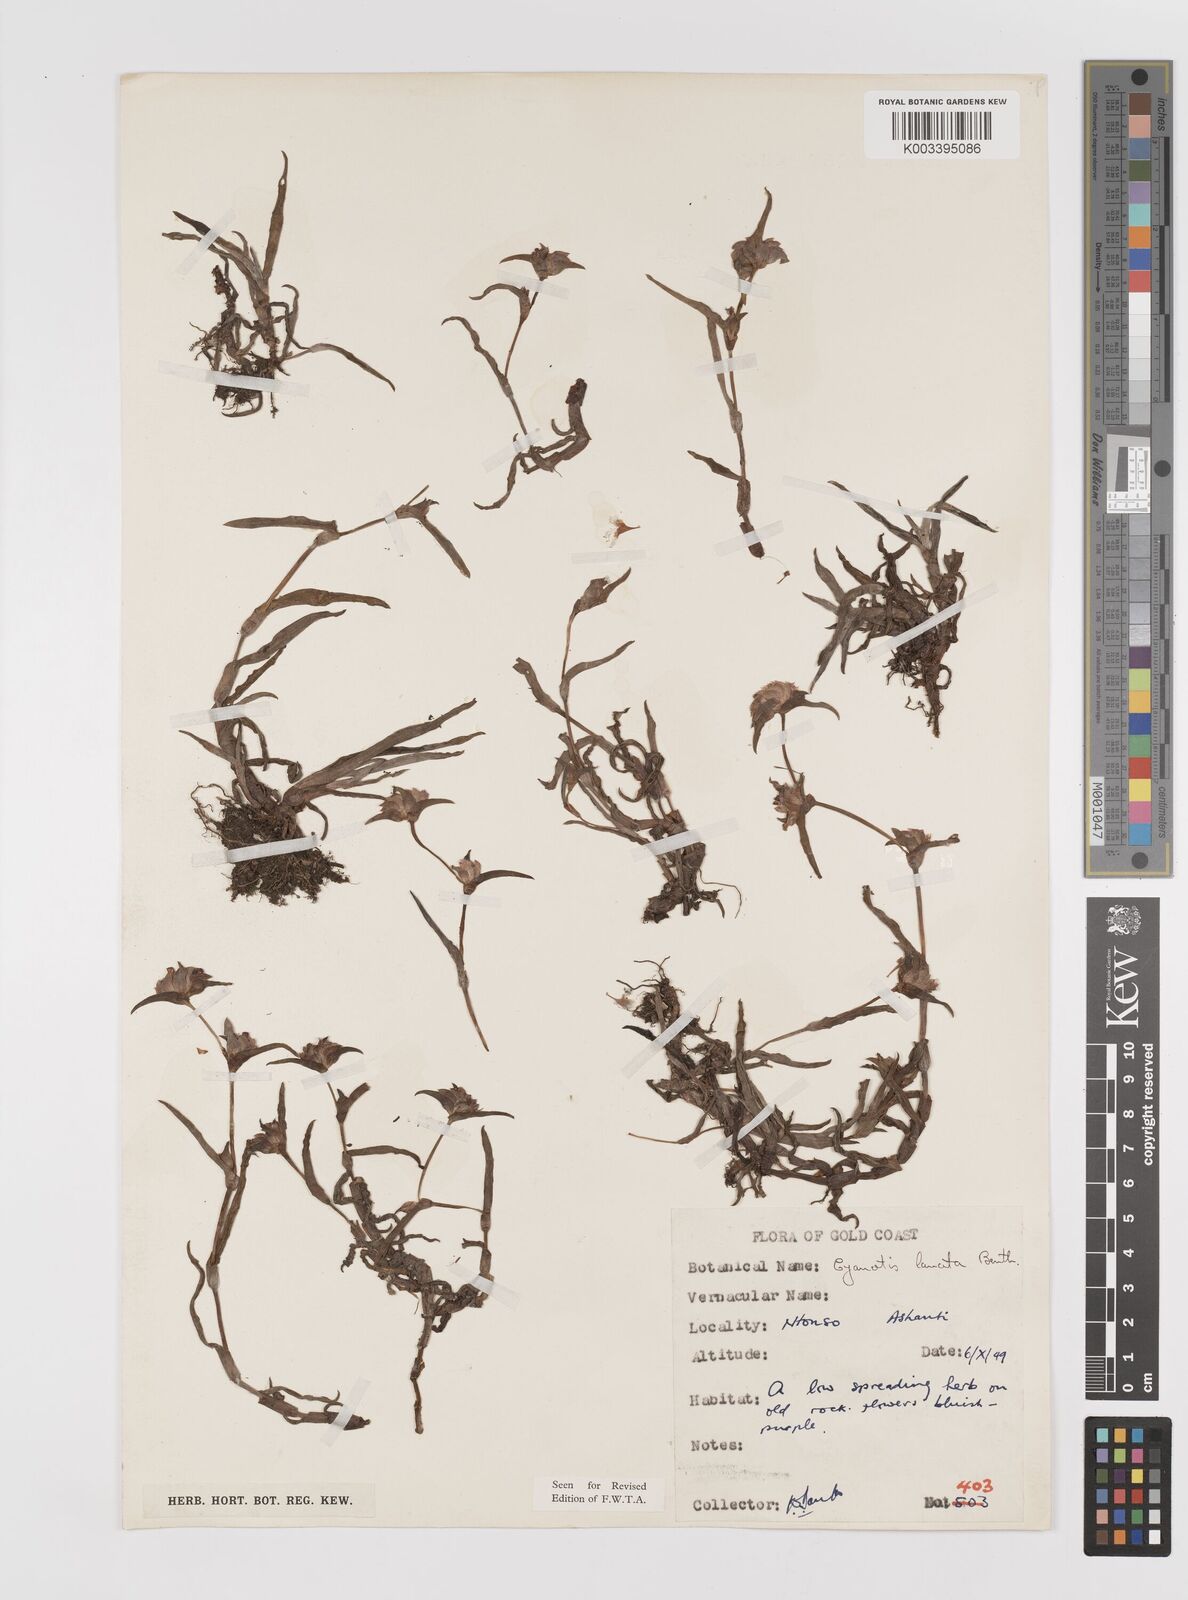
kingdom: Plantae
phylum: Tracheophyta
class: Liliopsida
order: Commelinales
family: Commelinaceae
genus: Cyanotis
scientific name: Cyanotis lanata
